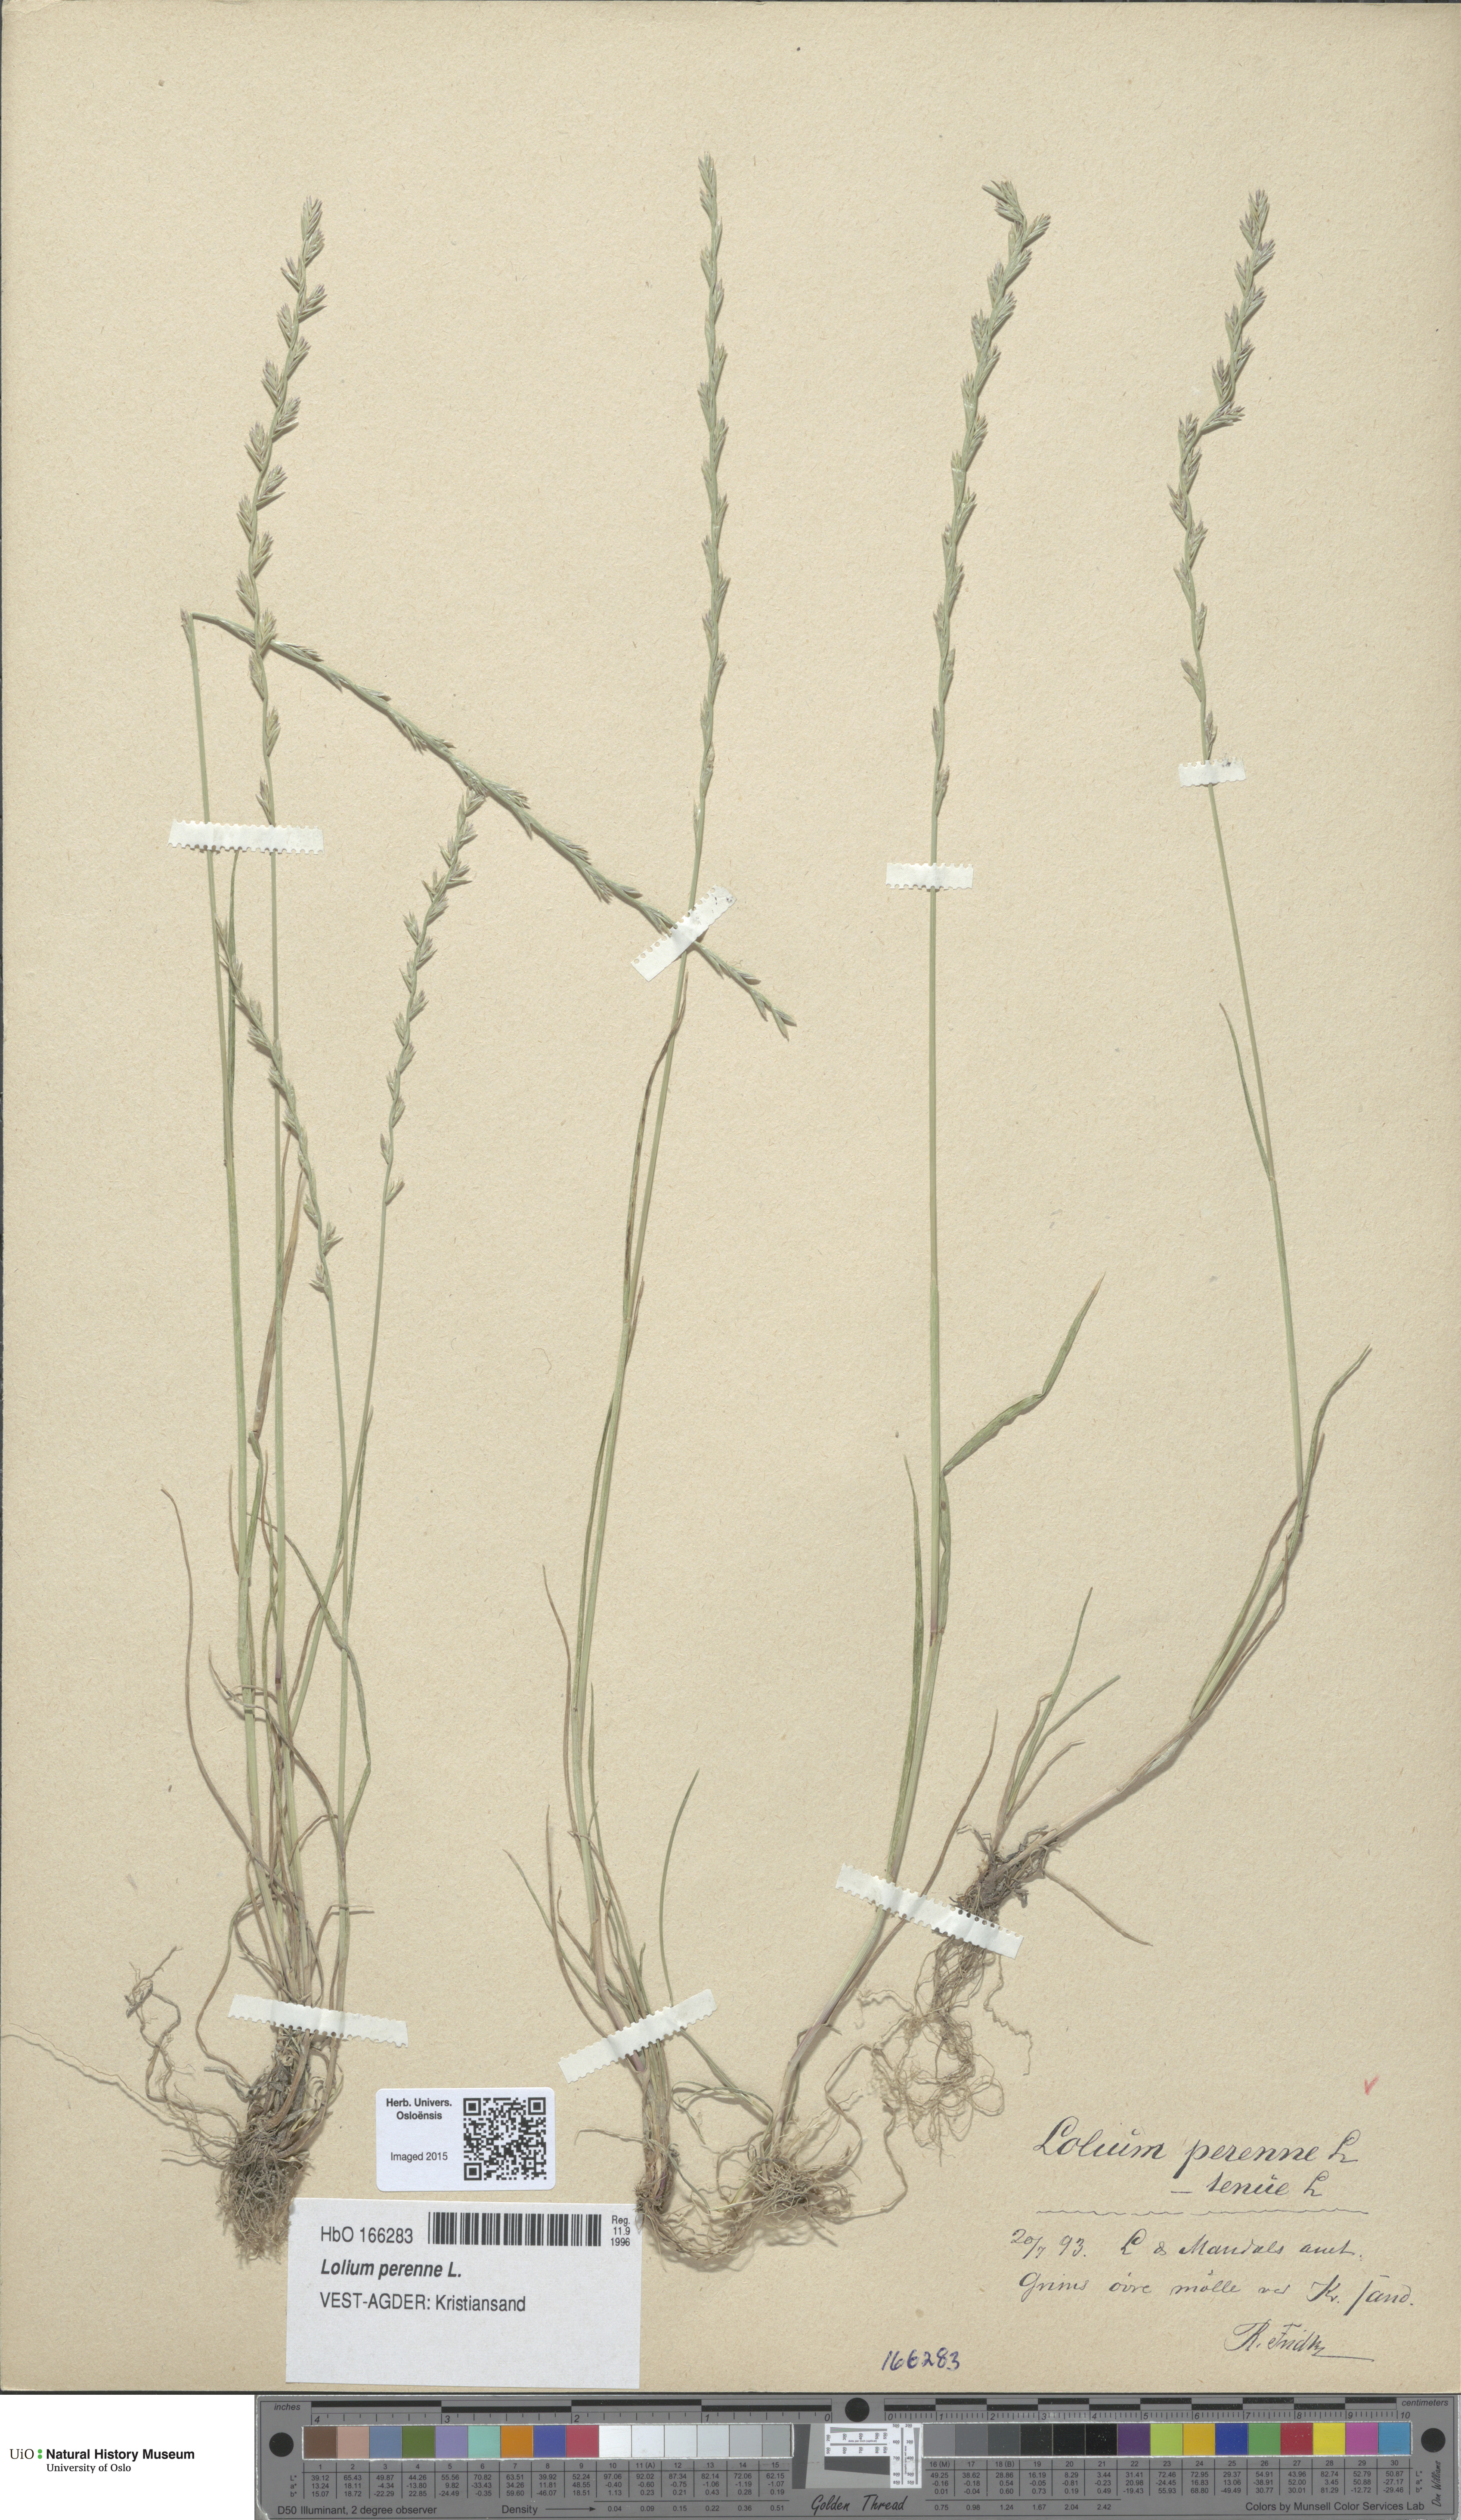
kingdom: Plantae
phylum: Tracheophyta
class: Liliopsida
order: Poales
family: Poaceae
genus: Lolium
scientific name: Lolium perenne
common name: Perennial ryegrass
